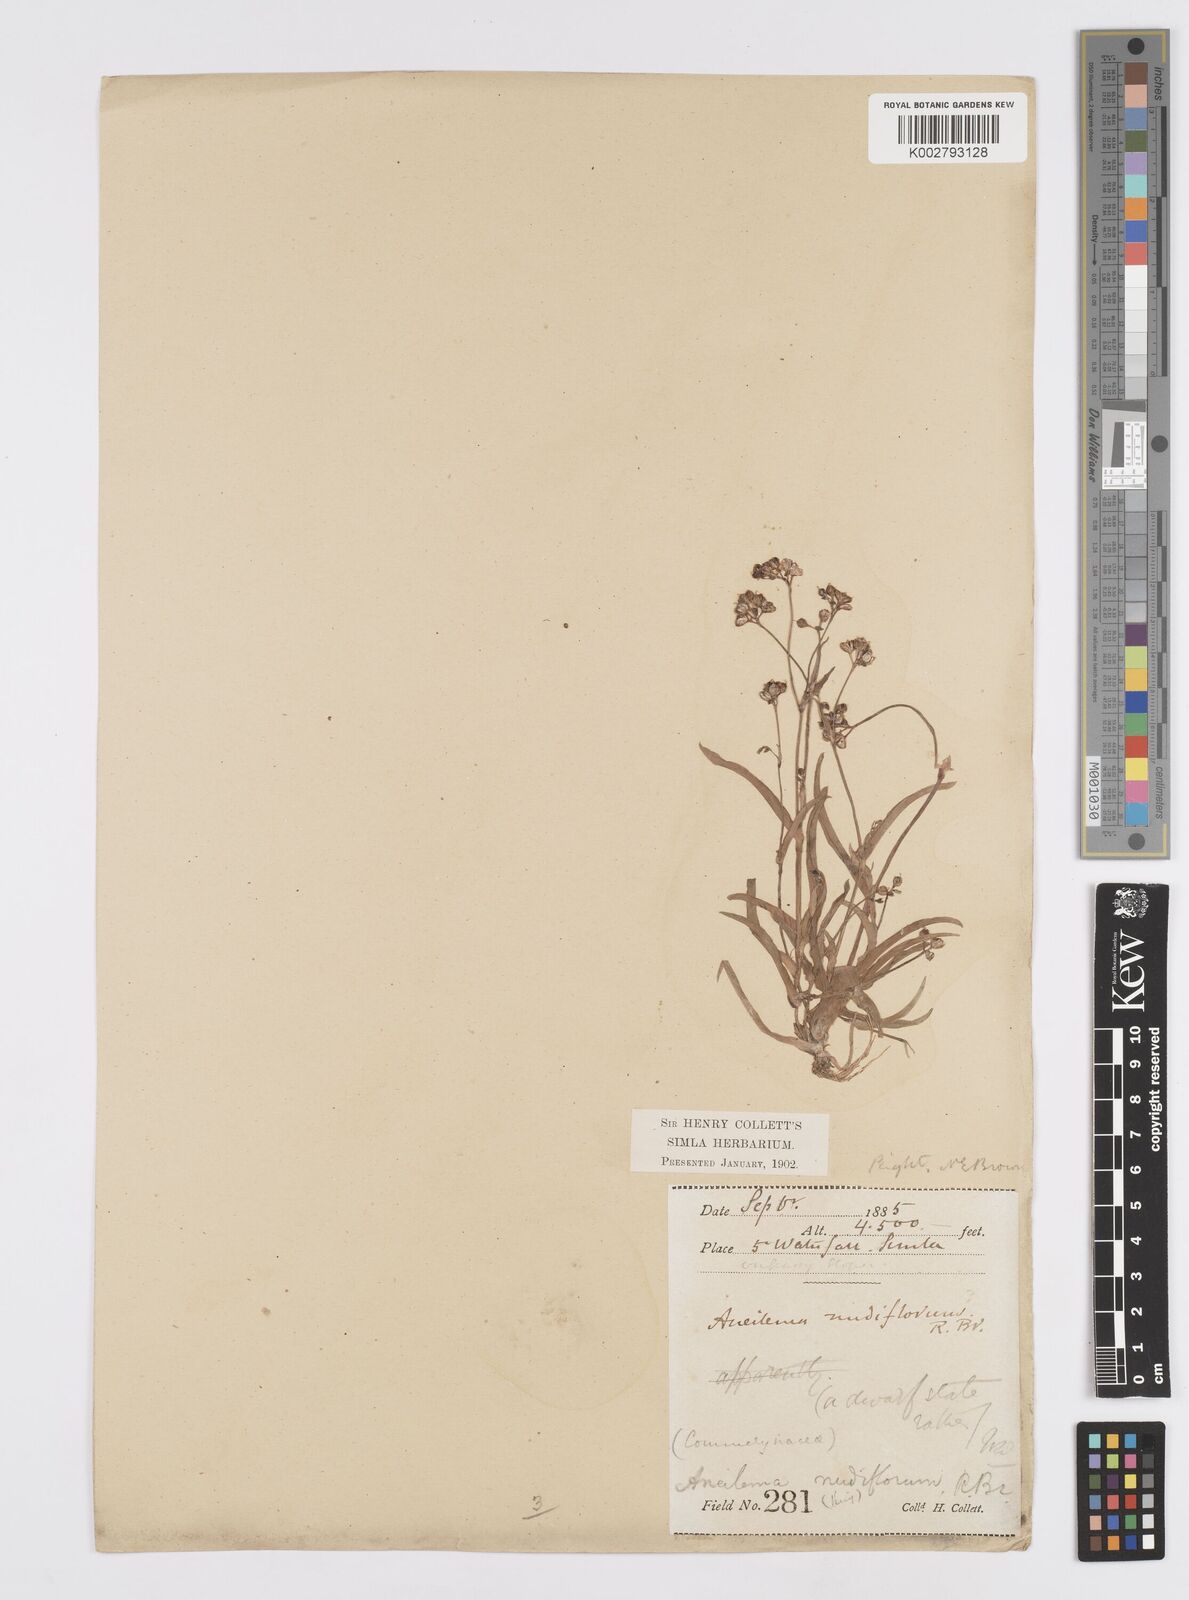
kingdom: Plantae
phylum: Tracheophyta
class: Liliopsida
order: Commelinales
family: Commelinaceae
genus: Murdannia
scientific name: Murdannia nudiflora
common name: Nakedstem dewflower
